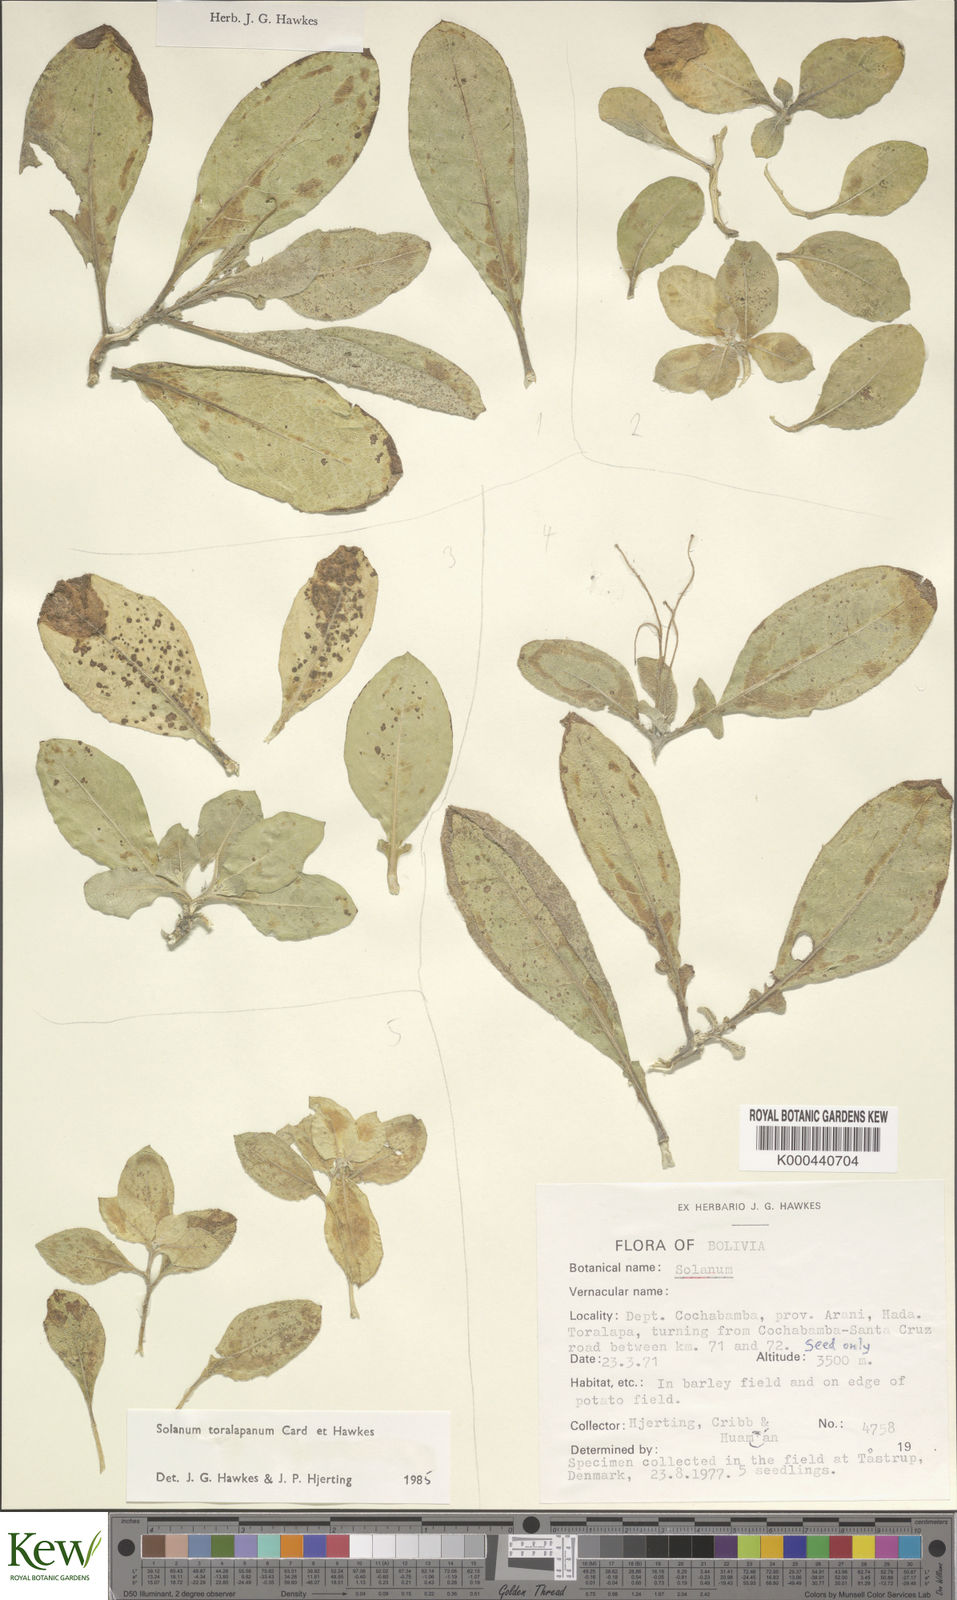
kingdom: Plantae
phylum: Tracheophyta
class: Magnoliopsida
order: Solanales
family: Solanaceae
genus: Solanum
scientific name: Solanum boliviense
